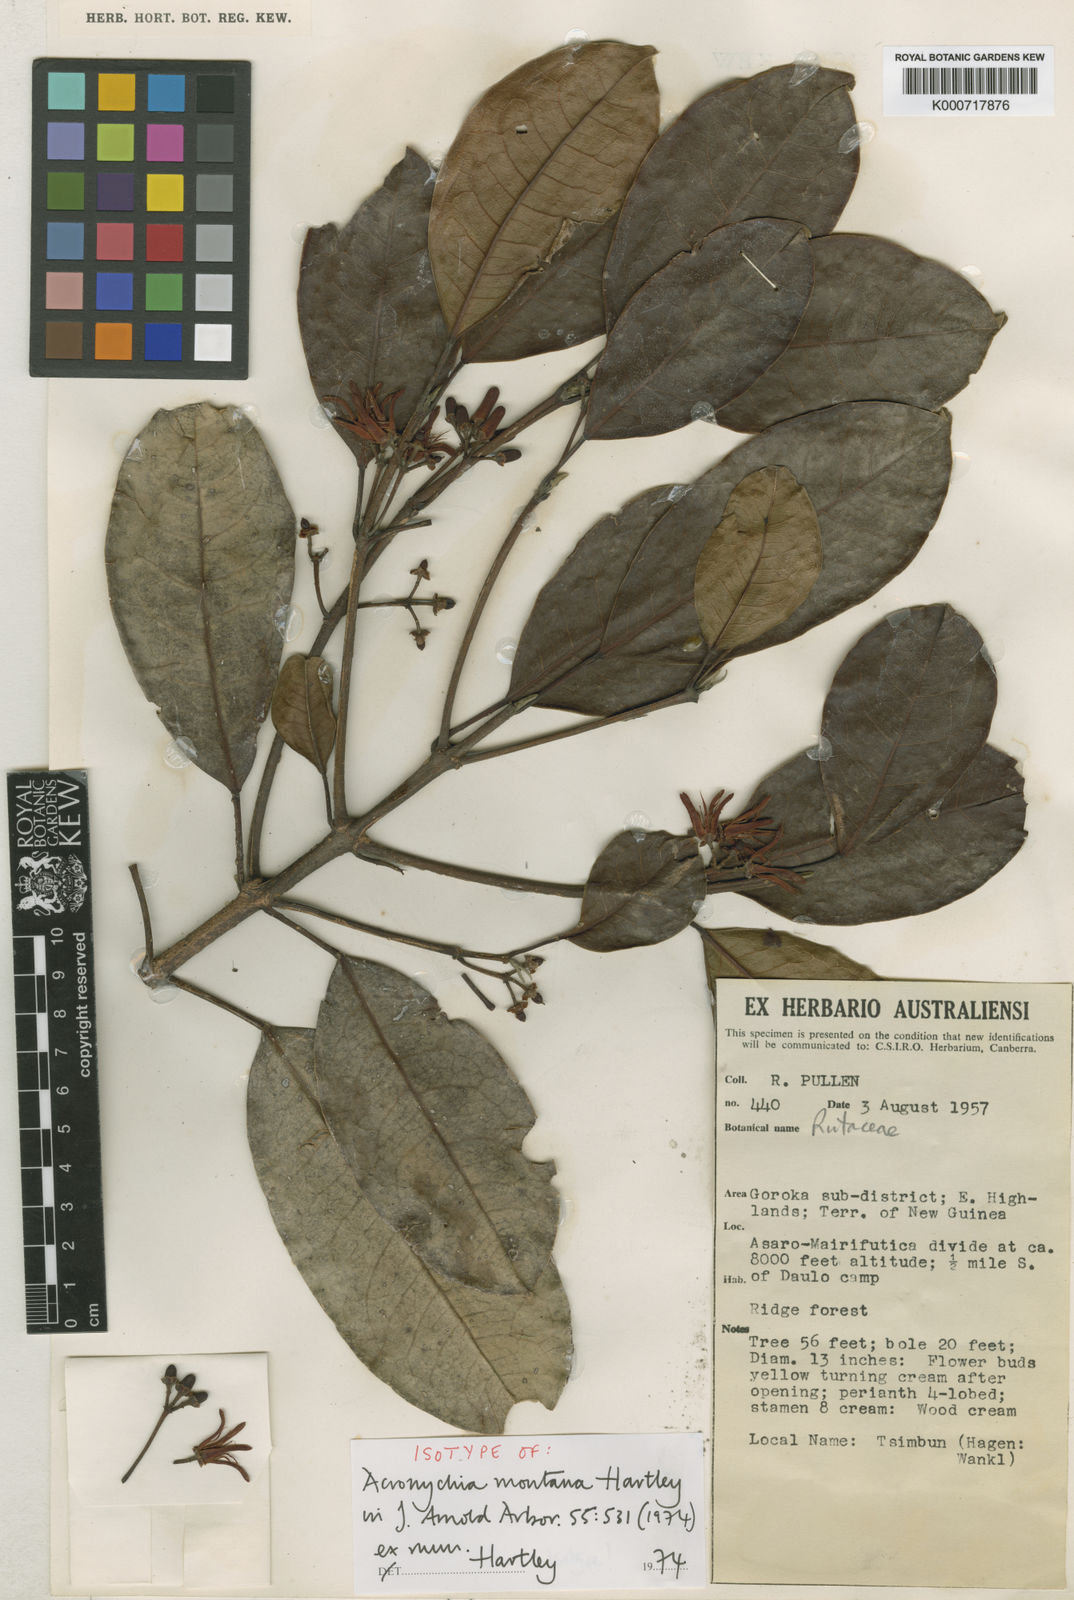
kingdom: Plantae
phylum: Tracheophyta
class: Magnoliopsida
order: Sapindales
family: Rutaceae
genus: Acronychia
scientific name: Acronychia montana
